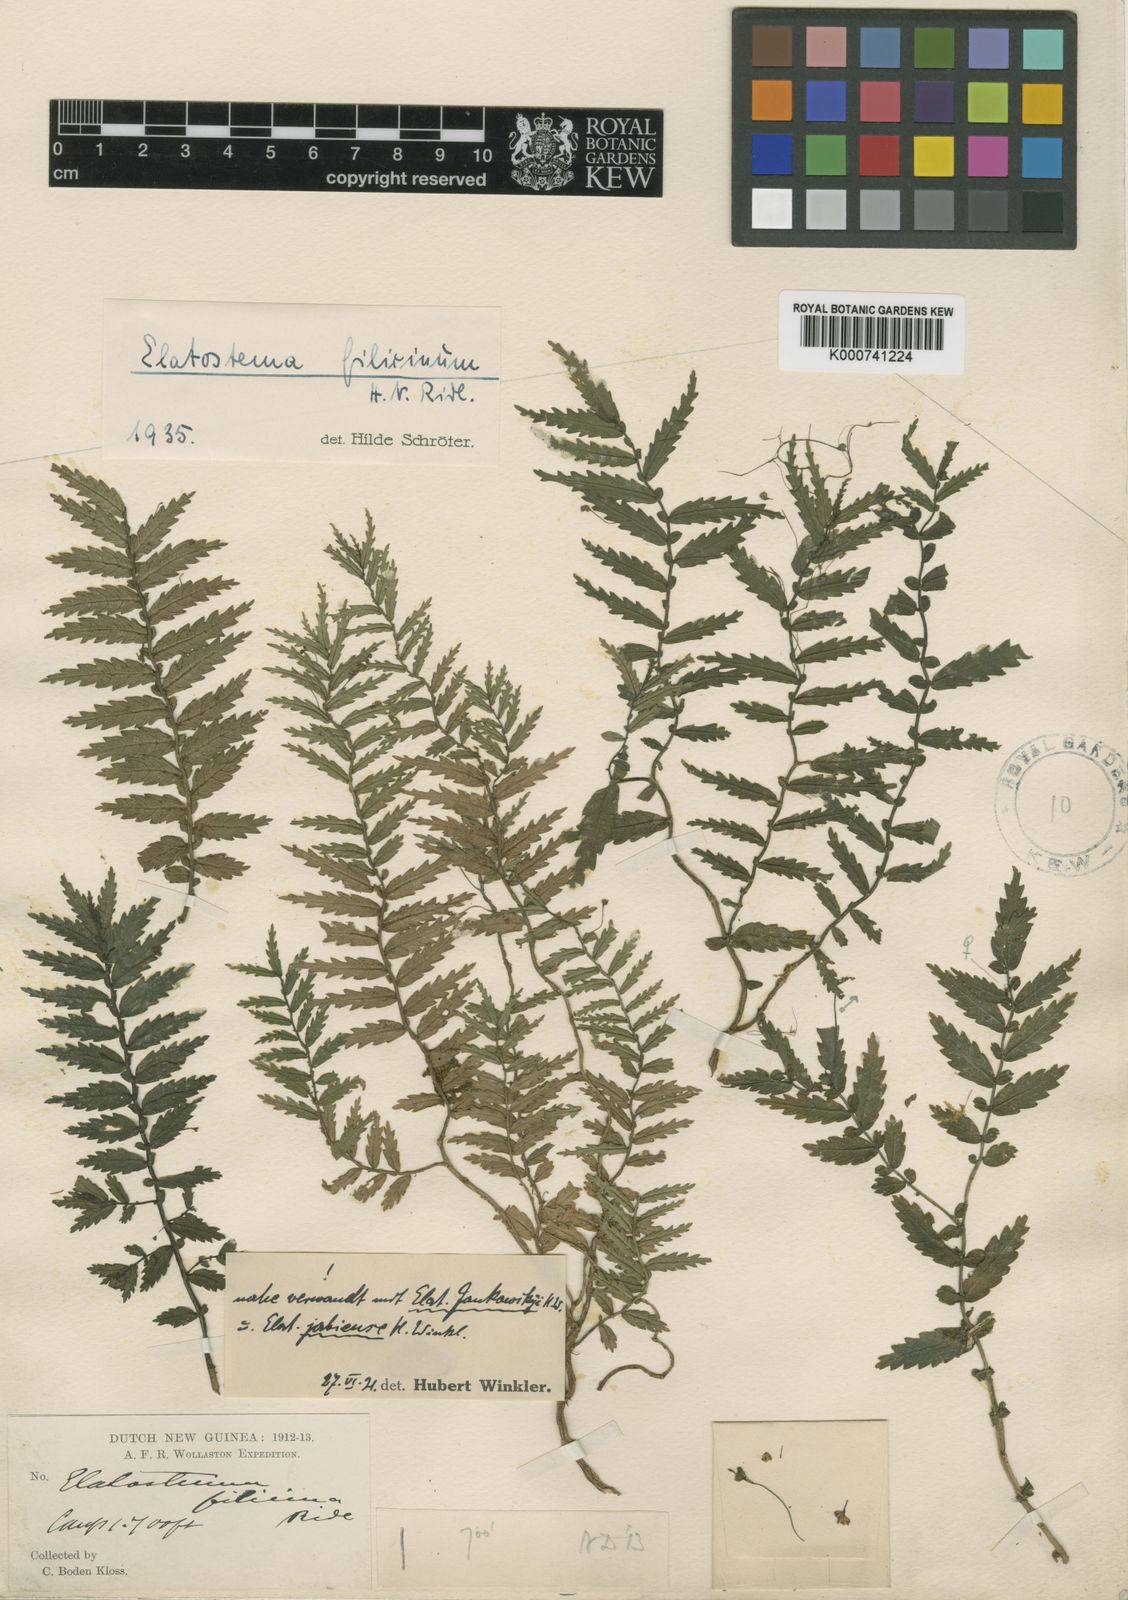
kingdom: Plantae
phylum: Tracheophyta
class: Magnoliopsida
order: Rosales
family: Urticaceae
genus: Elatostema
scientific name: Elatostema filicinum
